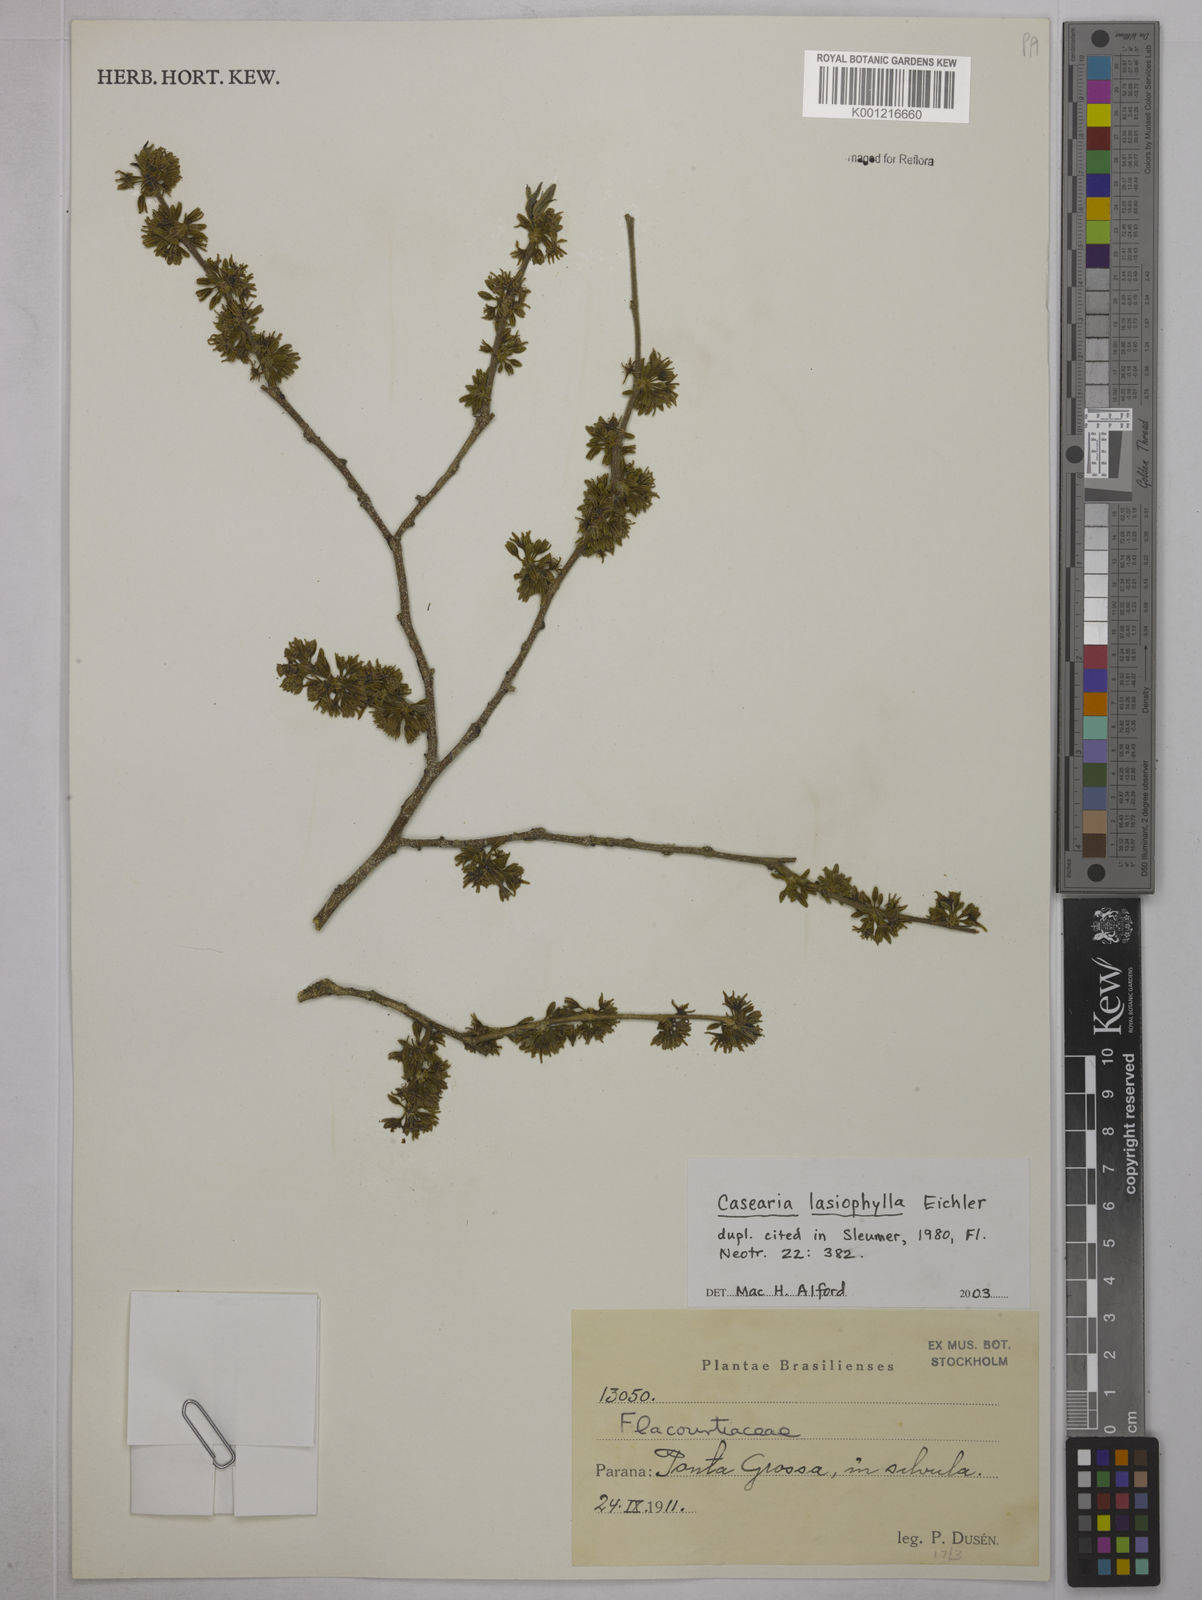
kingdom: Plantae
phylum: Tracheophyta
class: Magnoliopsida
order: Malpighiales
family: Salicaceae
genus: Casearia
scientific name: Casearia lasiophylla
